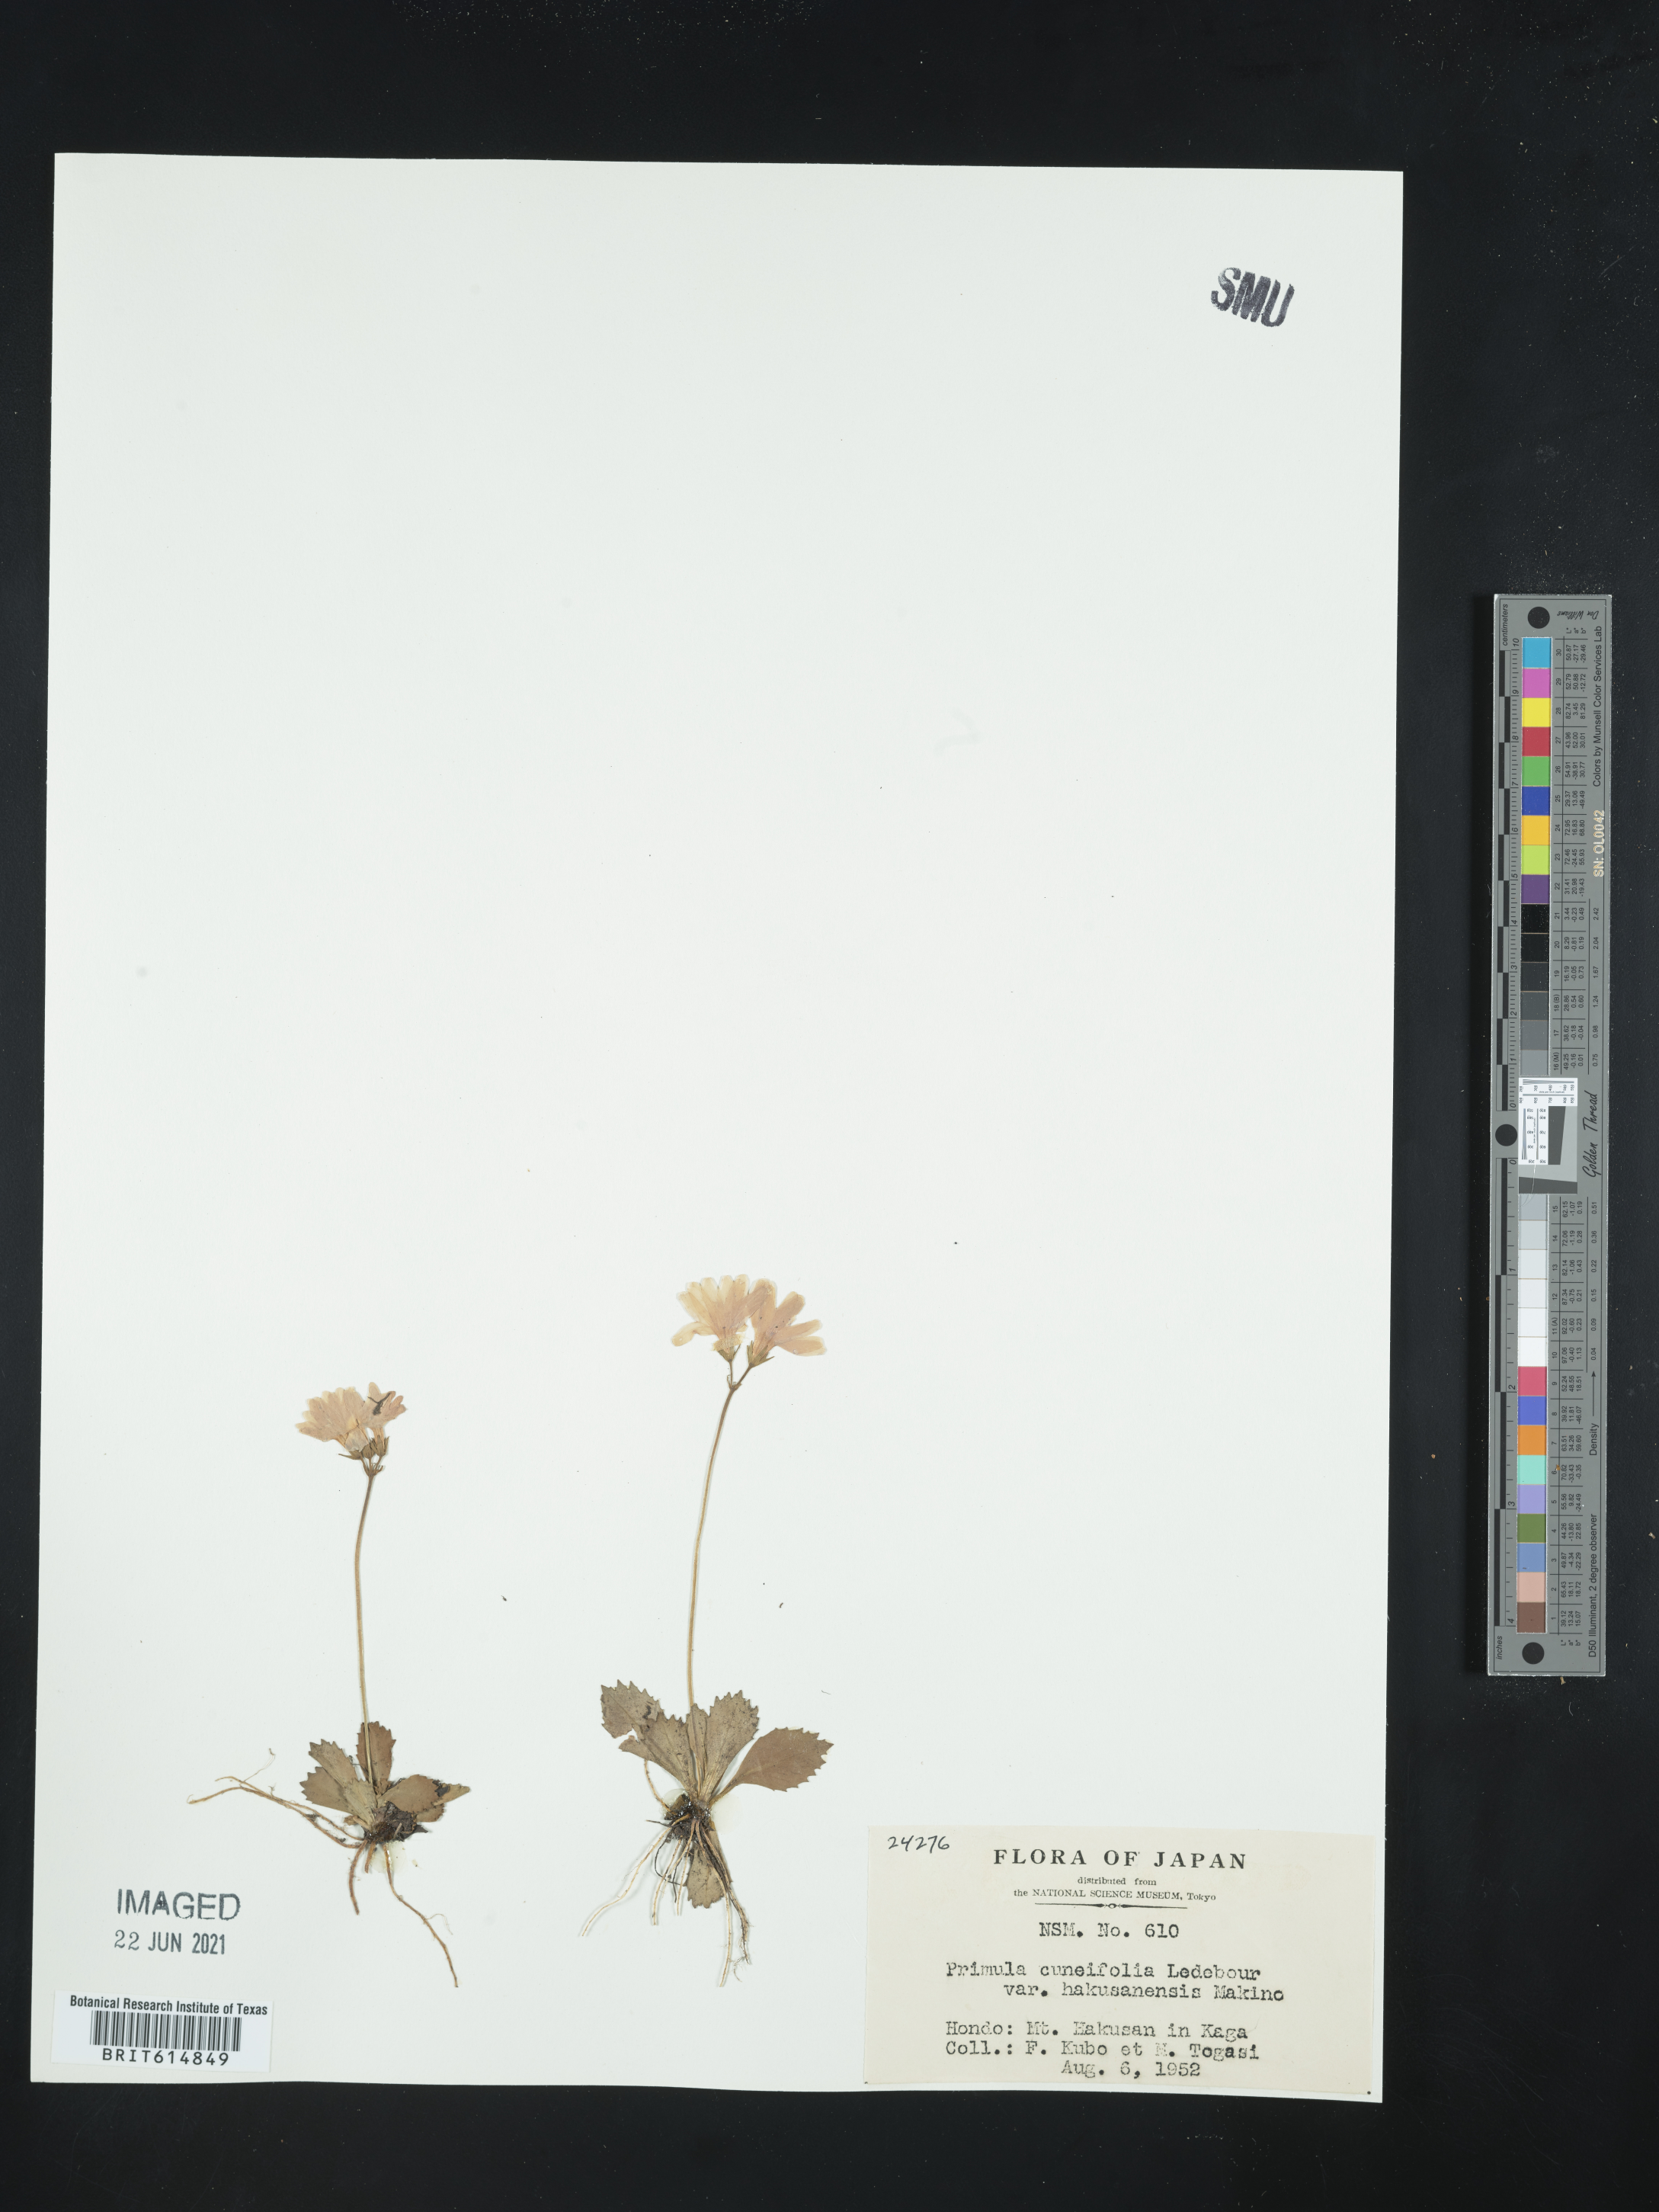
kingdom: Plantae
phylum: Tracheophyta
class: Magnoliopsida
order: Ericales
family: Primulaceae
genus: Primula
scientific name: Primula cuneifolia
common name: Wedge-leaved primrose
